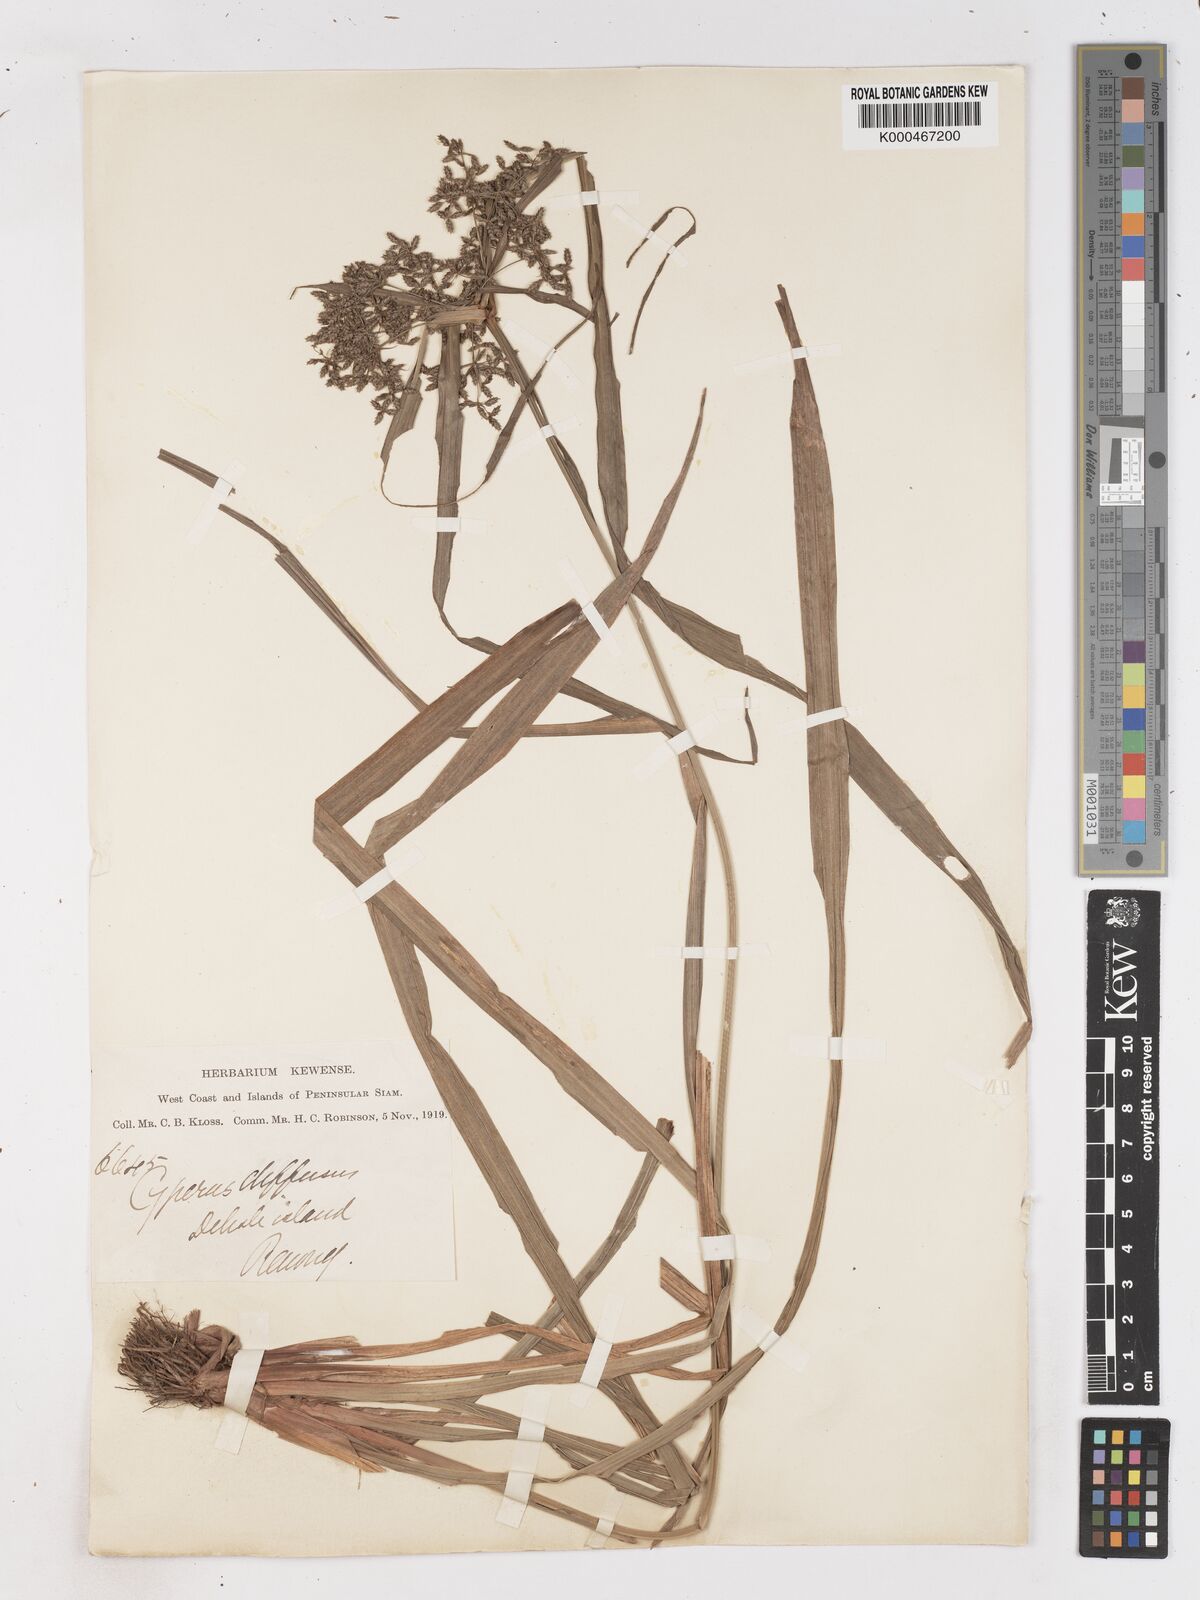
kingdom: Plantae
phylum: Tracheophyta
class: Liliopsida
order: Poales
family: Cyperaceae
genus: Cyperus
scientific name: Cyperus diffusus
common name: Dwarf umbrella grass
